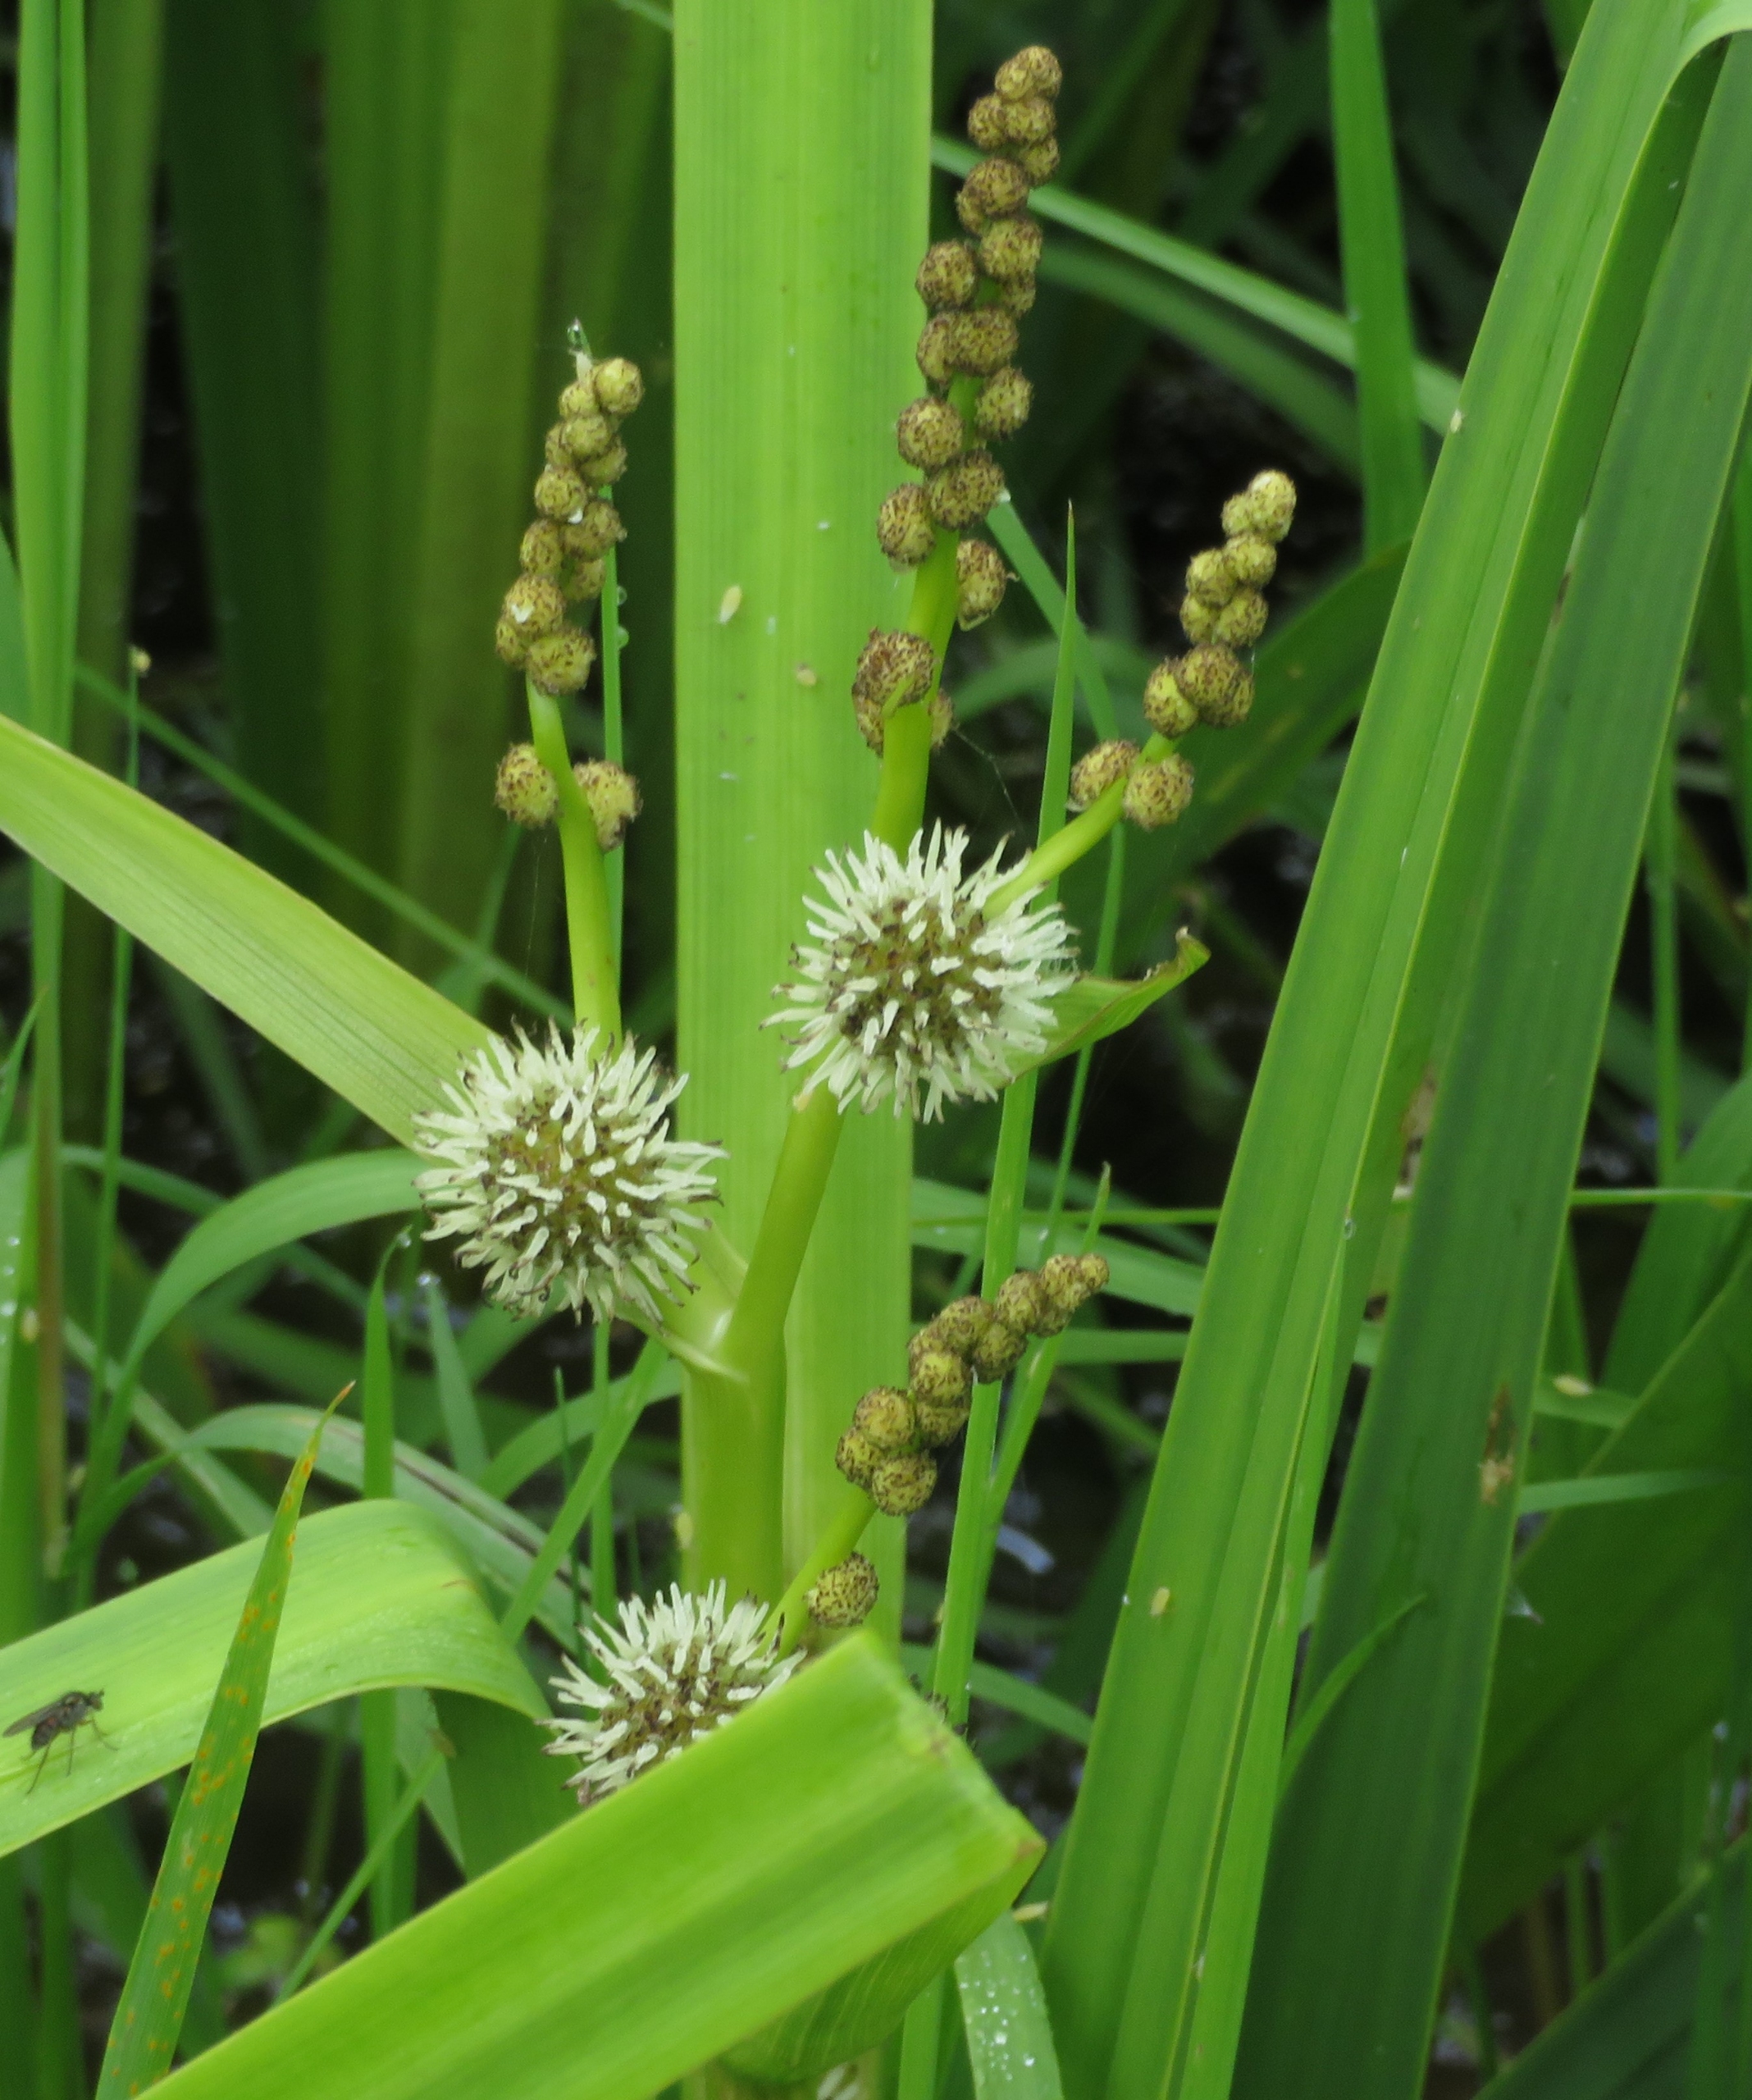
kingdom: Plantae
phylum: Tracheophyta
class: Liliopsida
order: Poales
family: Typhaceae
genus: Sparganium
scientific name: Sparganium erectum
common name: Grenet pindsvineknop
